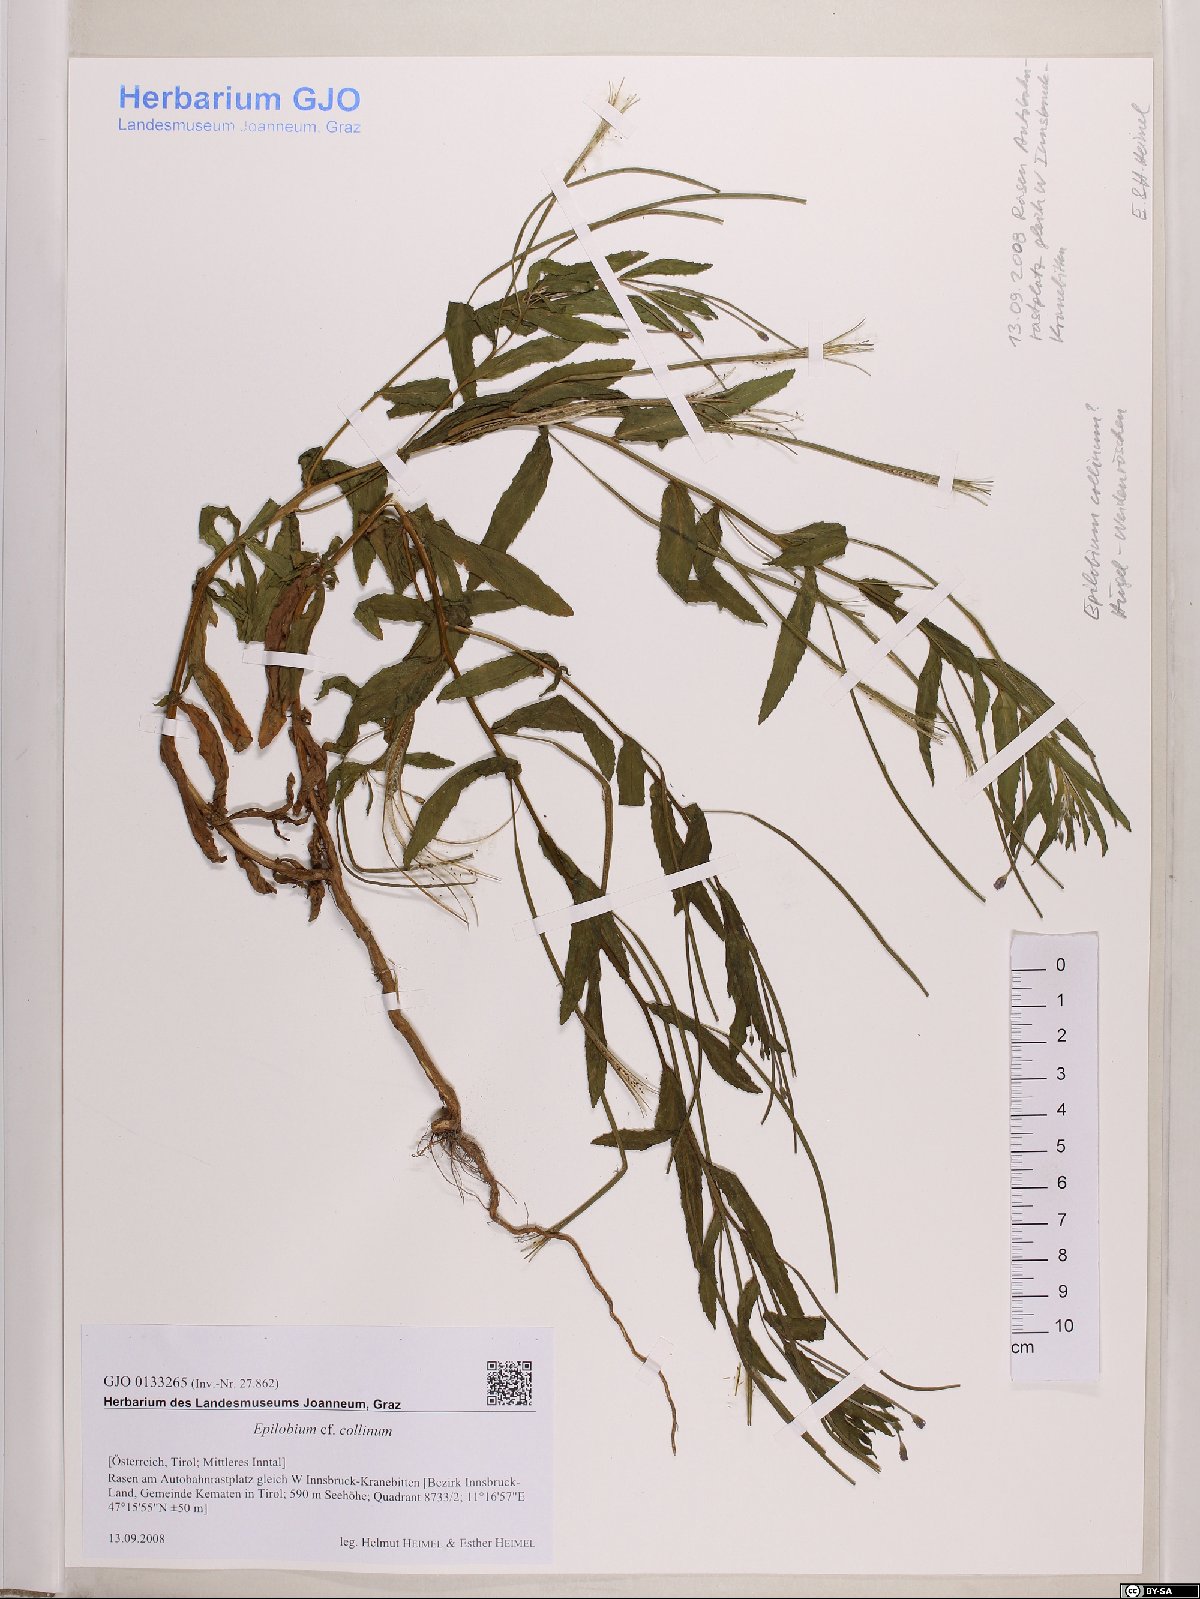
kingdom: Plantae
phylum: Tracheophyta
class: Magnoliopsida
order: Myrtales
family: Onagraceae
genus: Epilobium
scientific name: Epilobium collinum
